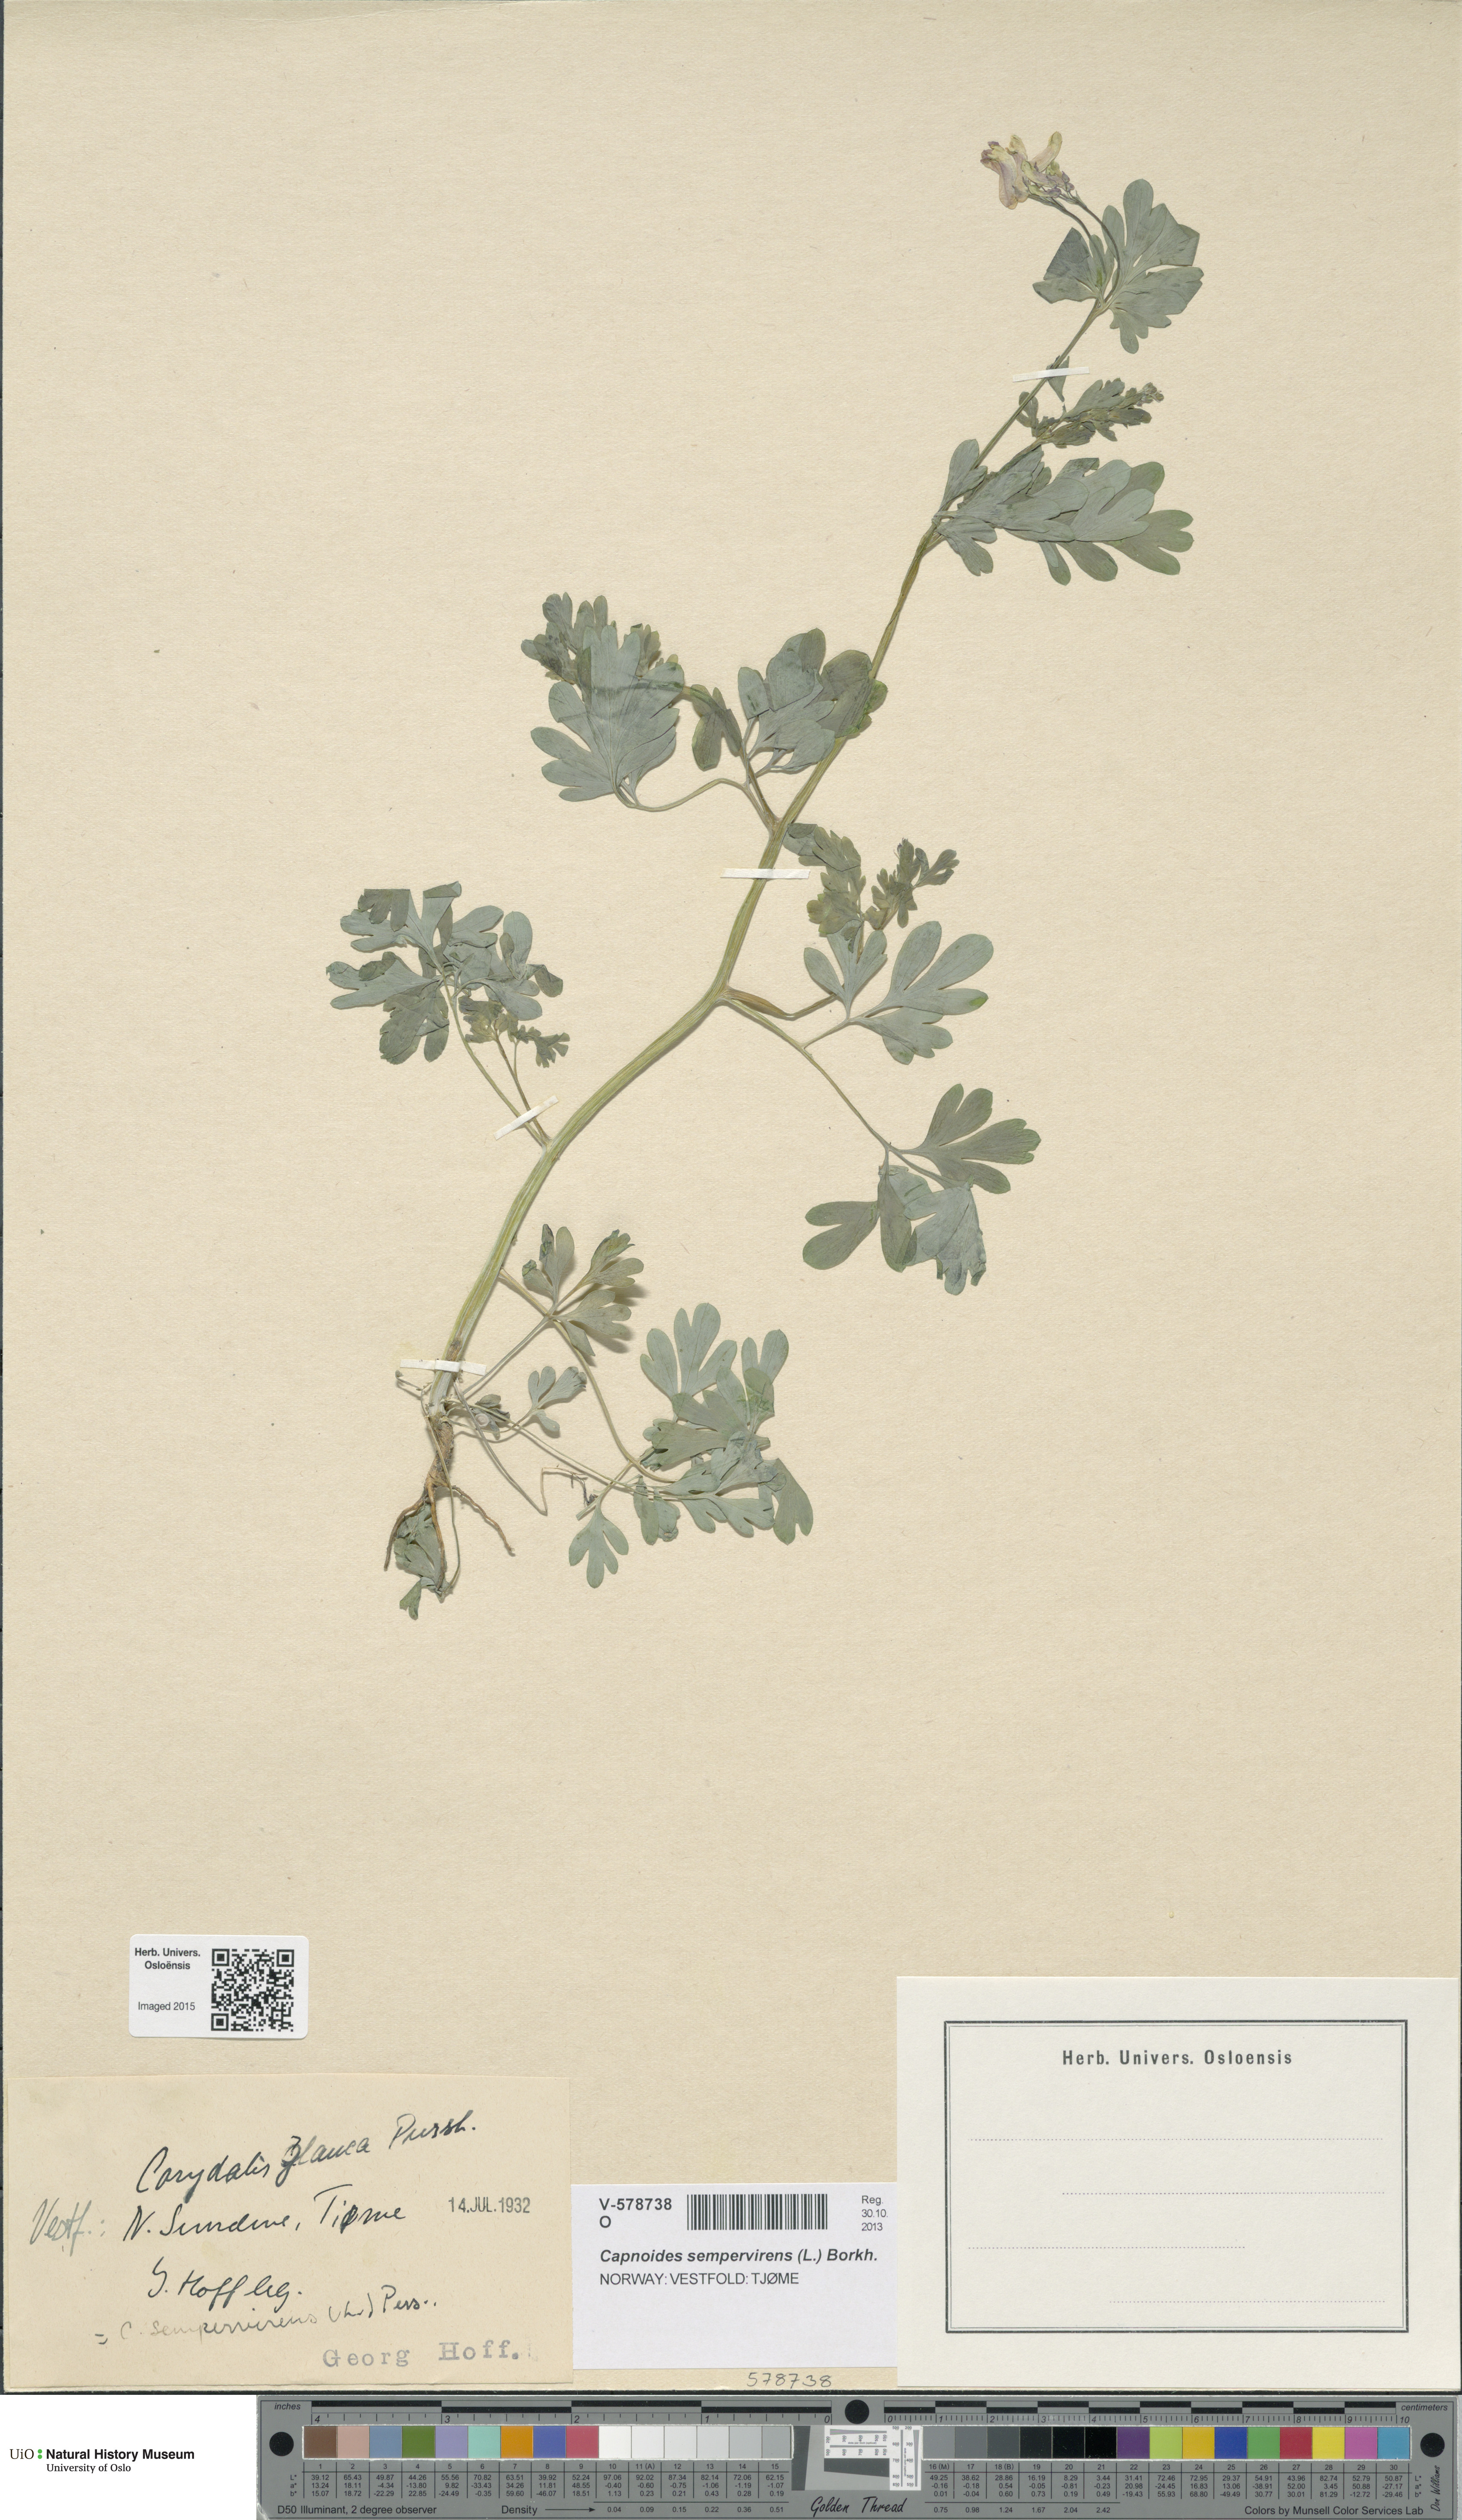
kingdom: Plantae
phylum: Tracheophyta
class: Magnoliopsida
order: Ranunculales
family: Papaveraceae
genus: Capnoides
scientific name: Capnoides sempervirens
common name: Rock harlequin
